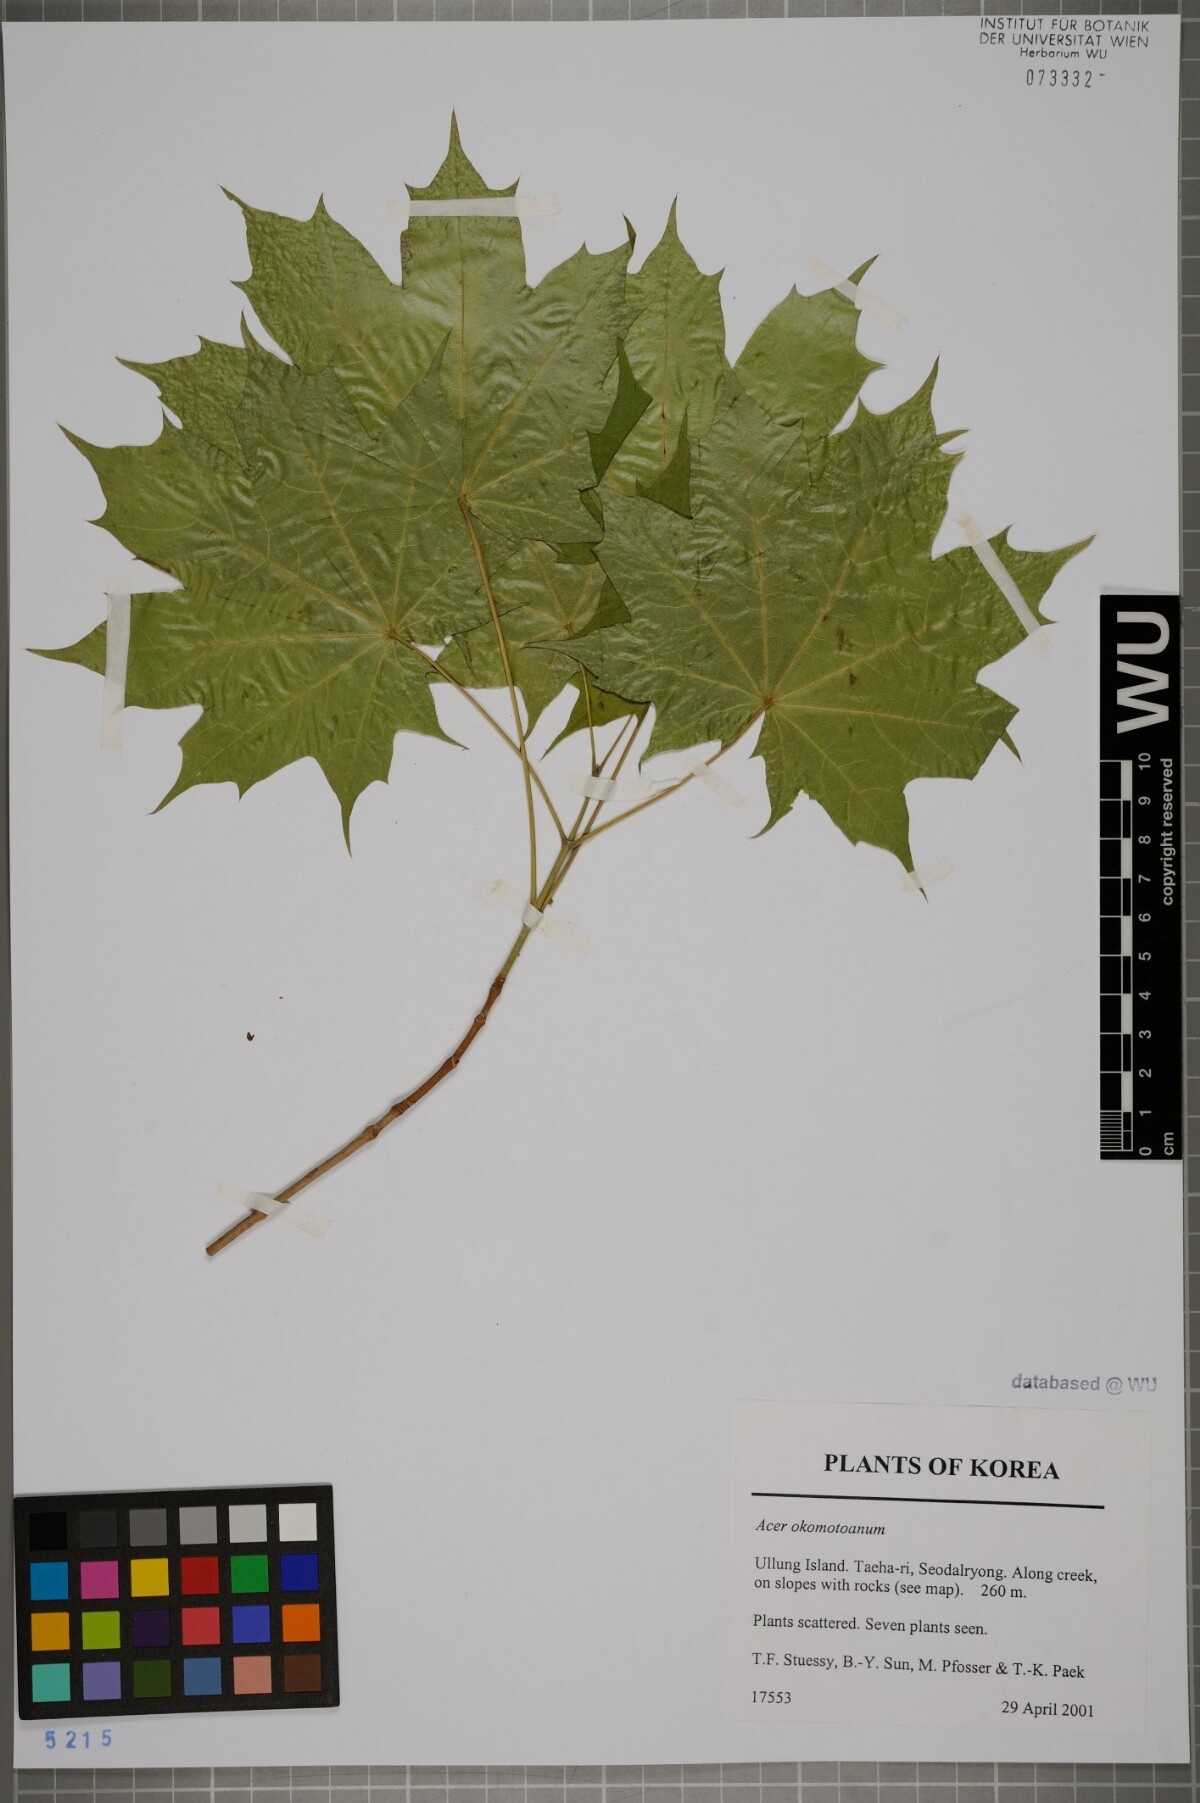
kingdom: Plantae
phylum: Tracheophyta
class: Magnoliopsida
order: Sapindales
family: Sapindaceae
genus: Acer
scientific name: Acer pictum
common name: The painted maple
